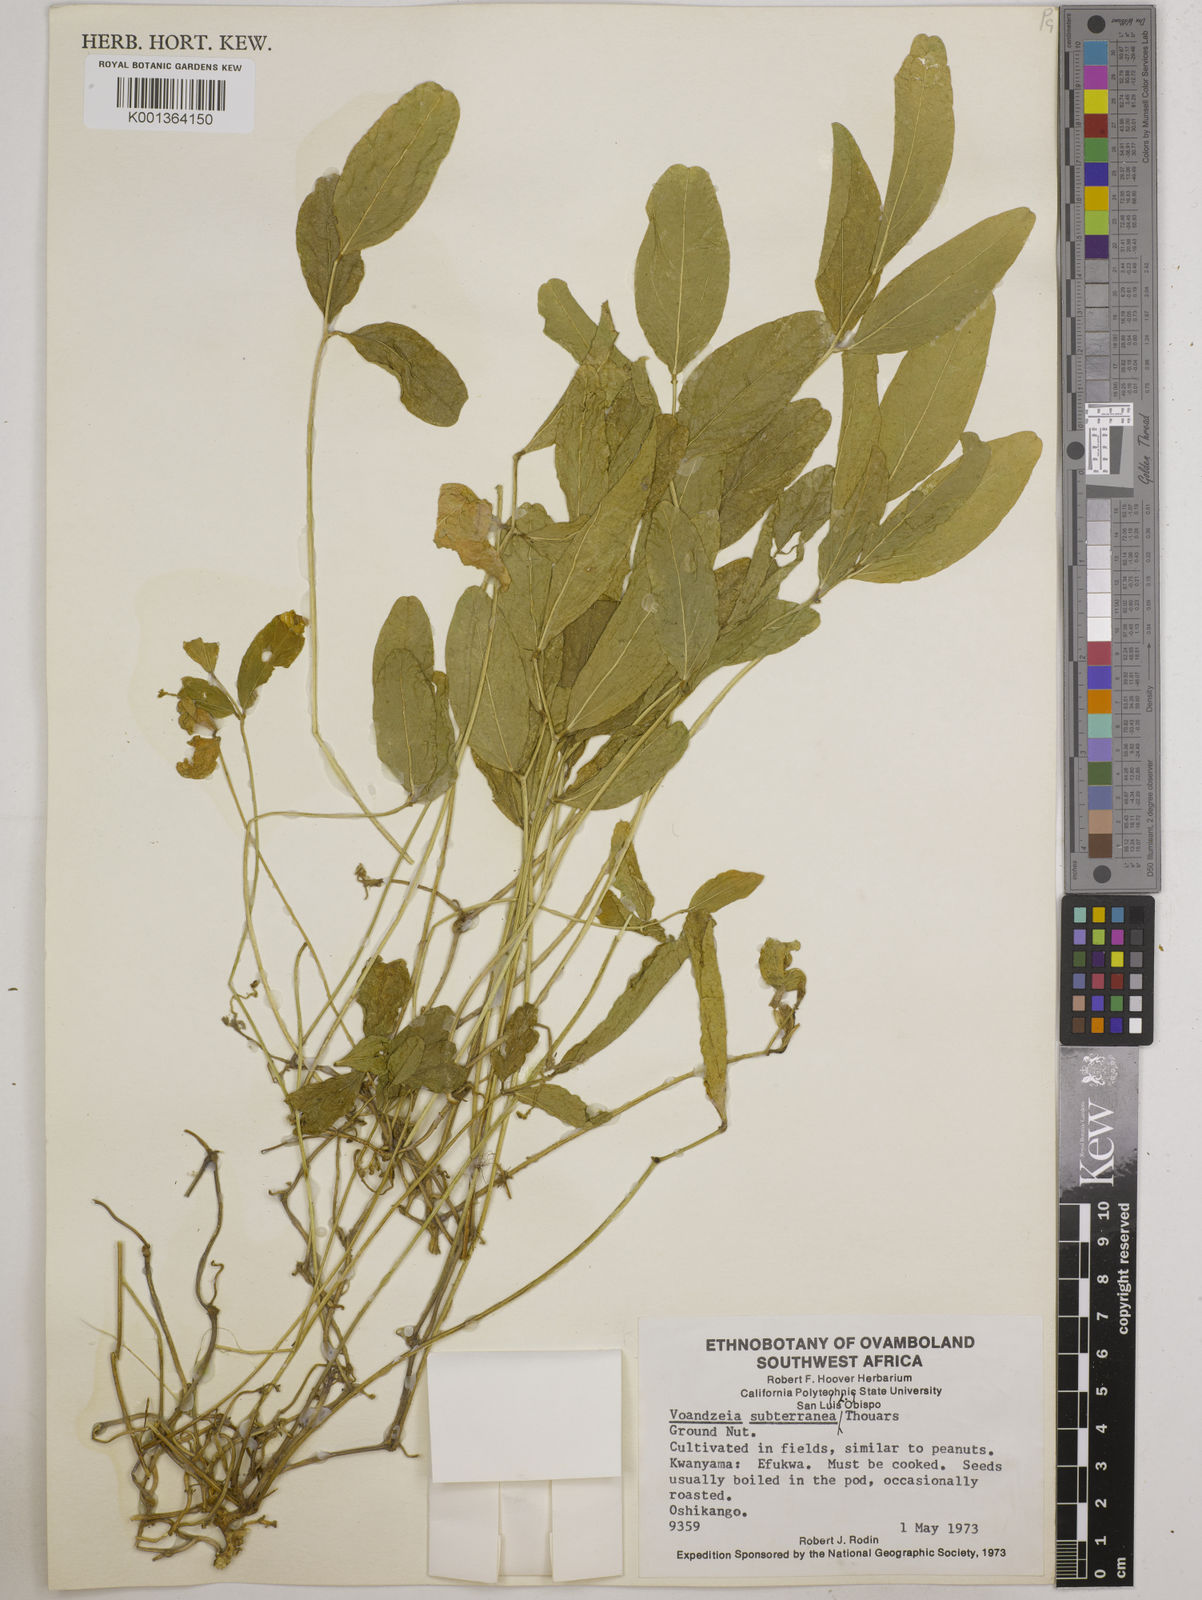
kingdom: Plantae
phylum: Tracheophyta
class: Magnoliopsida
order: Fabales
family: Fabaceae
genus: Vigna
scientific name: Vigna subterranea
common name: Bambara groundnut
